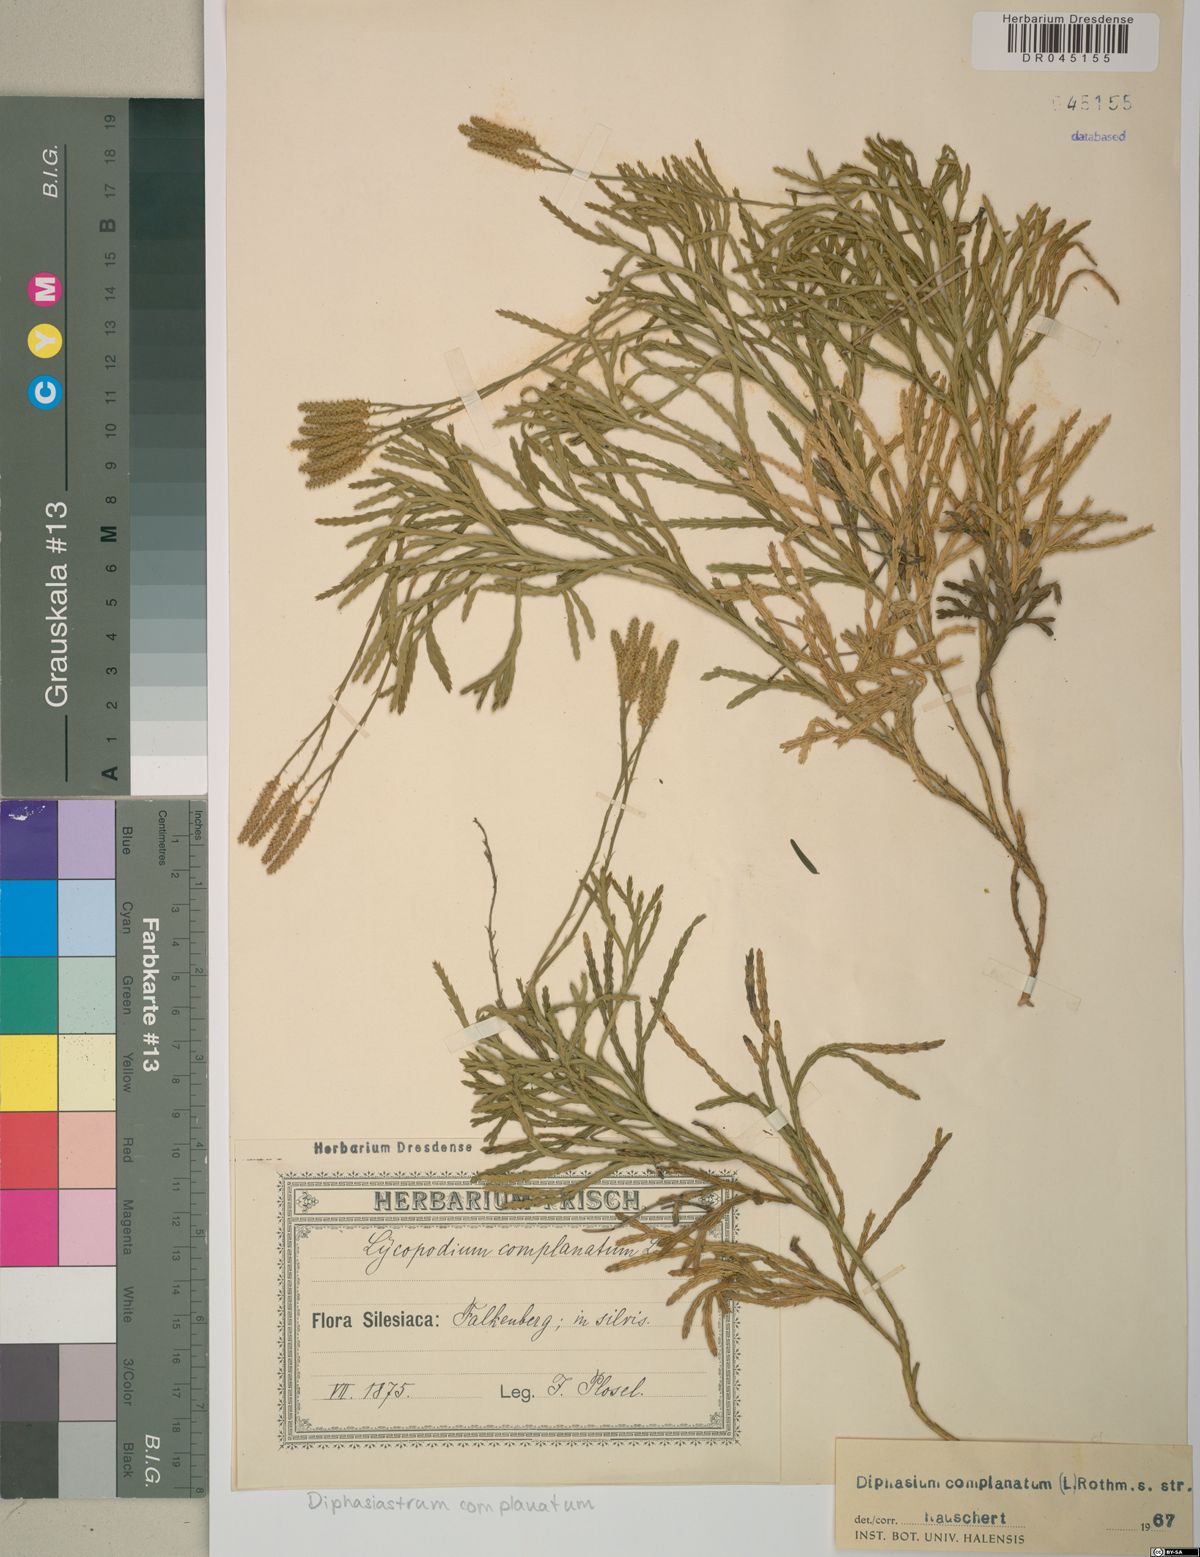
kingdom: Plantae
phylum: Tracheophyta
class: Lycopodiopsida
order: Lycopodiales
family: Lycopodiaceae
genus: Diphasiastrum
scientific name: Diphasiastrum complanatum
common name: Northern running-pine
